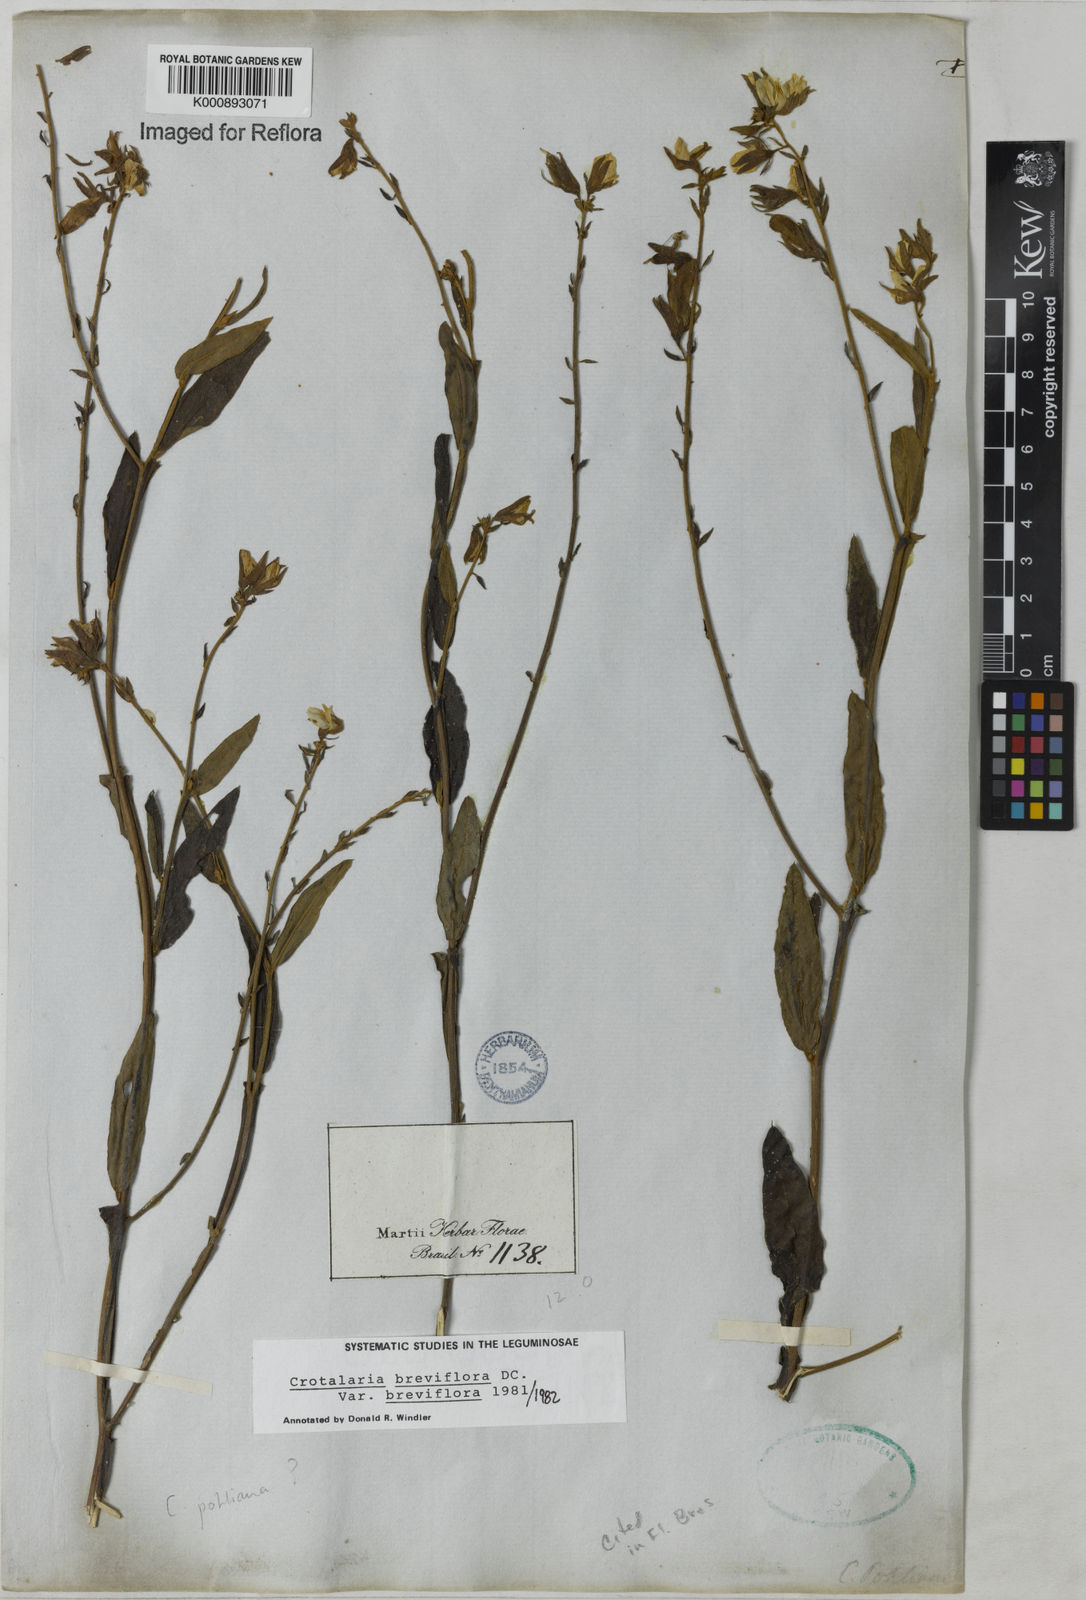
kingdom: Plantae
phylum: Tracheophyta
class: Magnoliopsida
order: Fabales
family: Fabaceae
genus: Crotalaria
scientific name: Crotalaria breviflora
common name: Short-flower crotalaria
